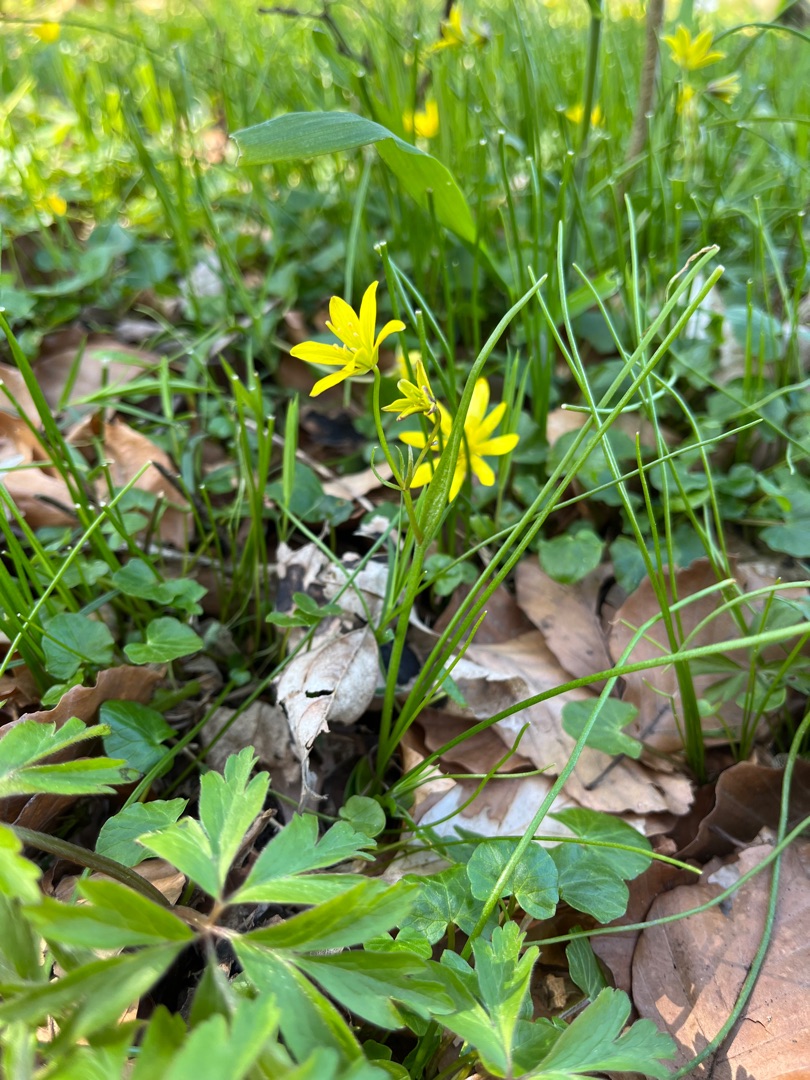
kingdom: Plantae
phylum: Tracheophyta
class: Liliopsida
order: Liliales
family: Liliaceae
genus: Gagea
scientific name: Gagea spathacea
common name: Hylster-guldstjerne
